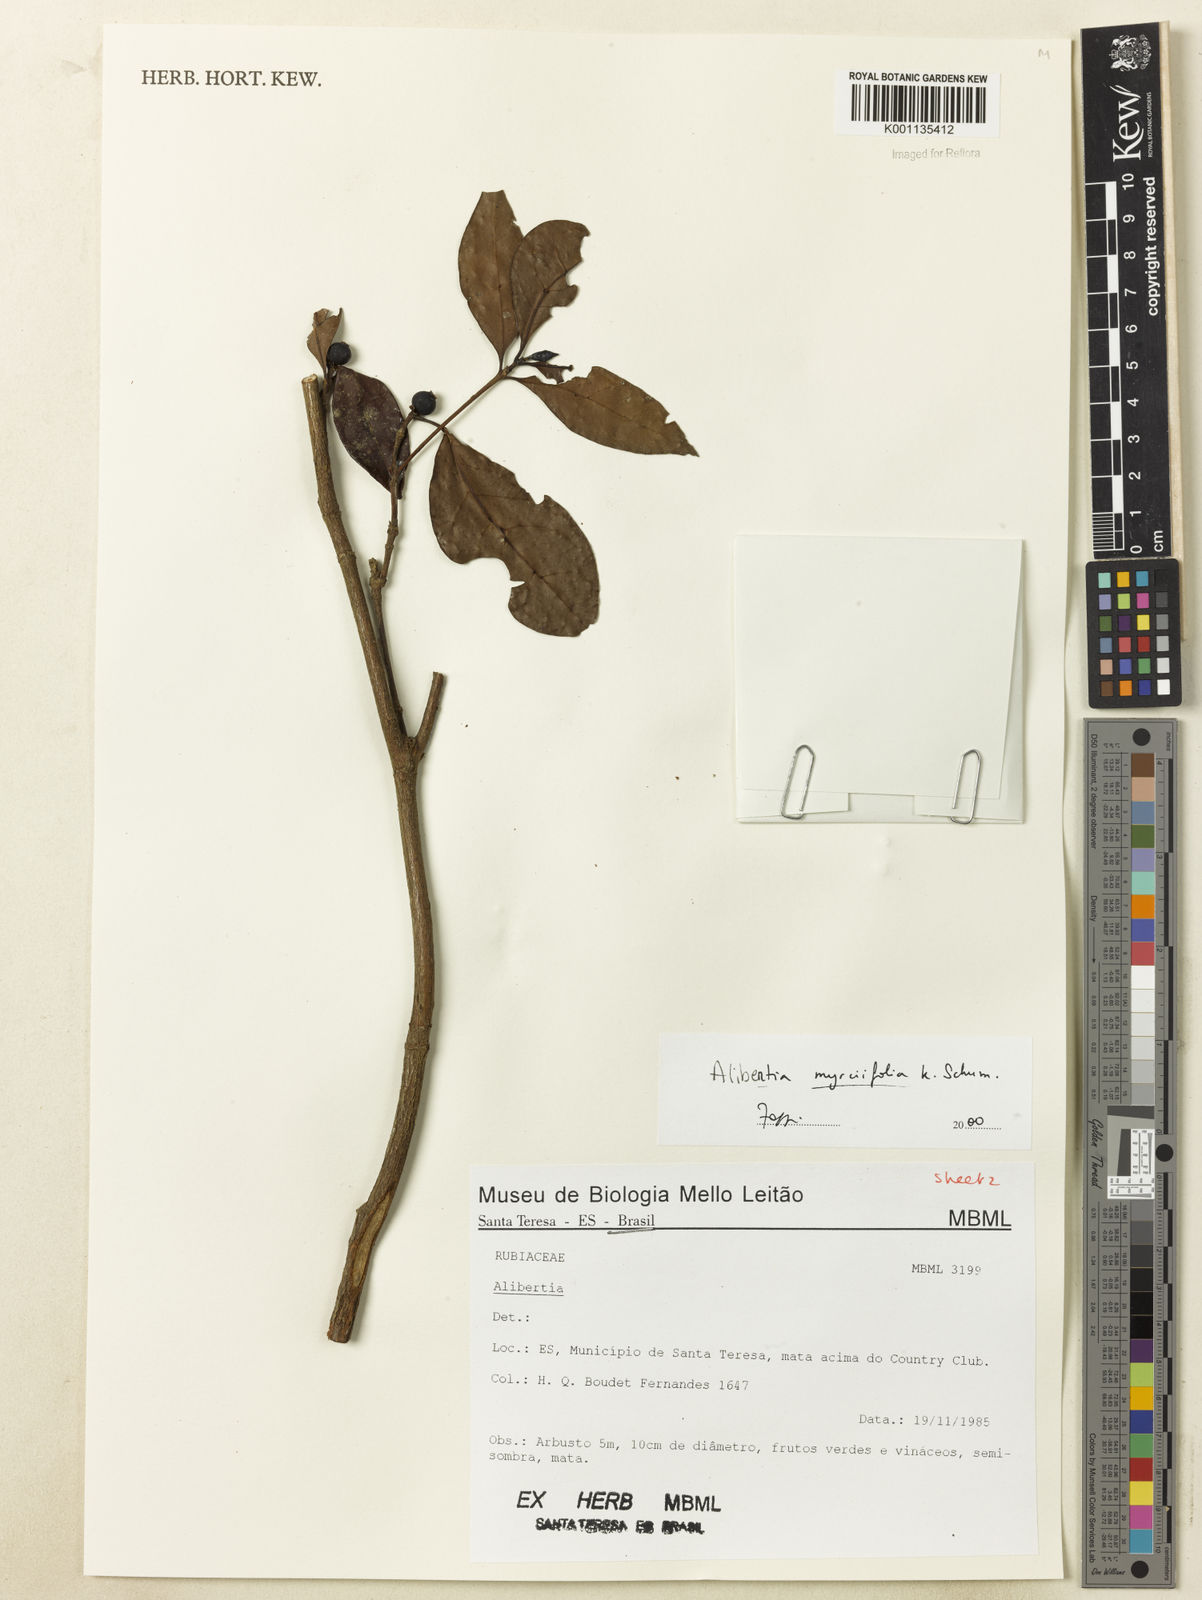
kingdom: Plantae
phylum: Tracheophyta
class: Magnoliopsida
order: Gentianales
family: Rubiaceae
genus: Cordiera
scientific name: Cordiera myrciifolia
